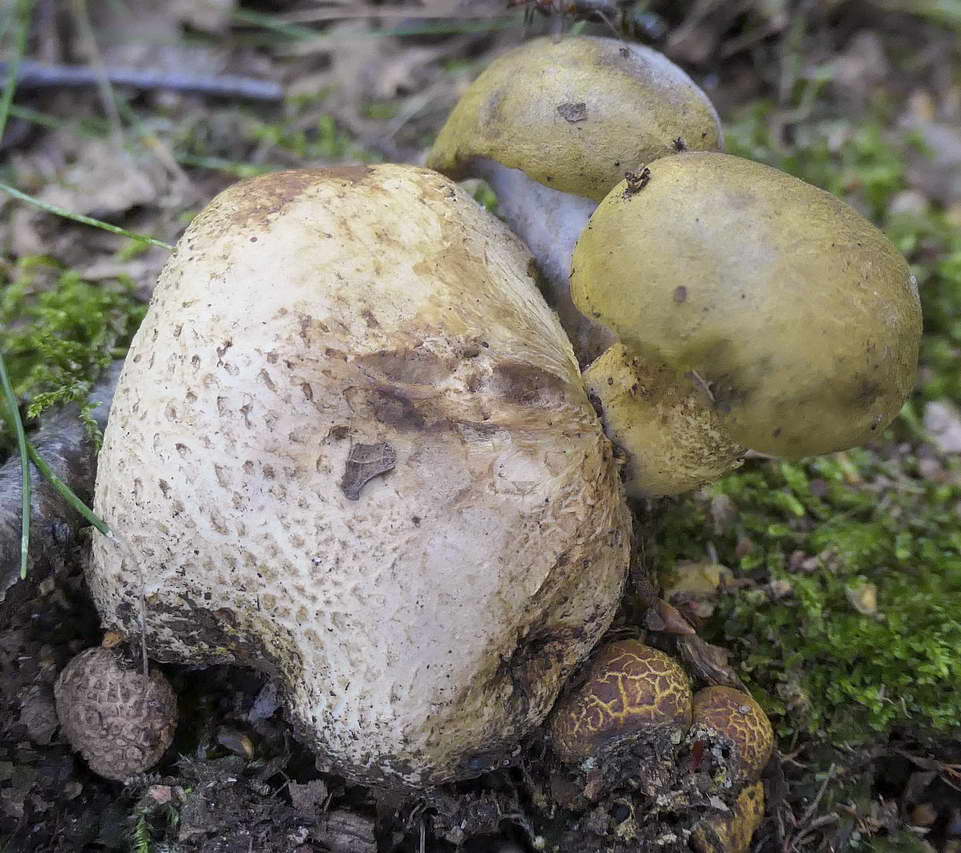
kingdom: Fungi
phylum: Basidiomycota
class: Agaricomycetes
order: Boletales
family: Boletaceae
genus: Pseudoboletus
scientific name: Pseudoboletus parasiticus
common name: snyltende rørhat
